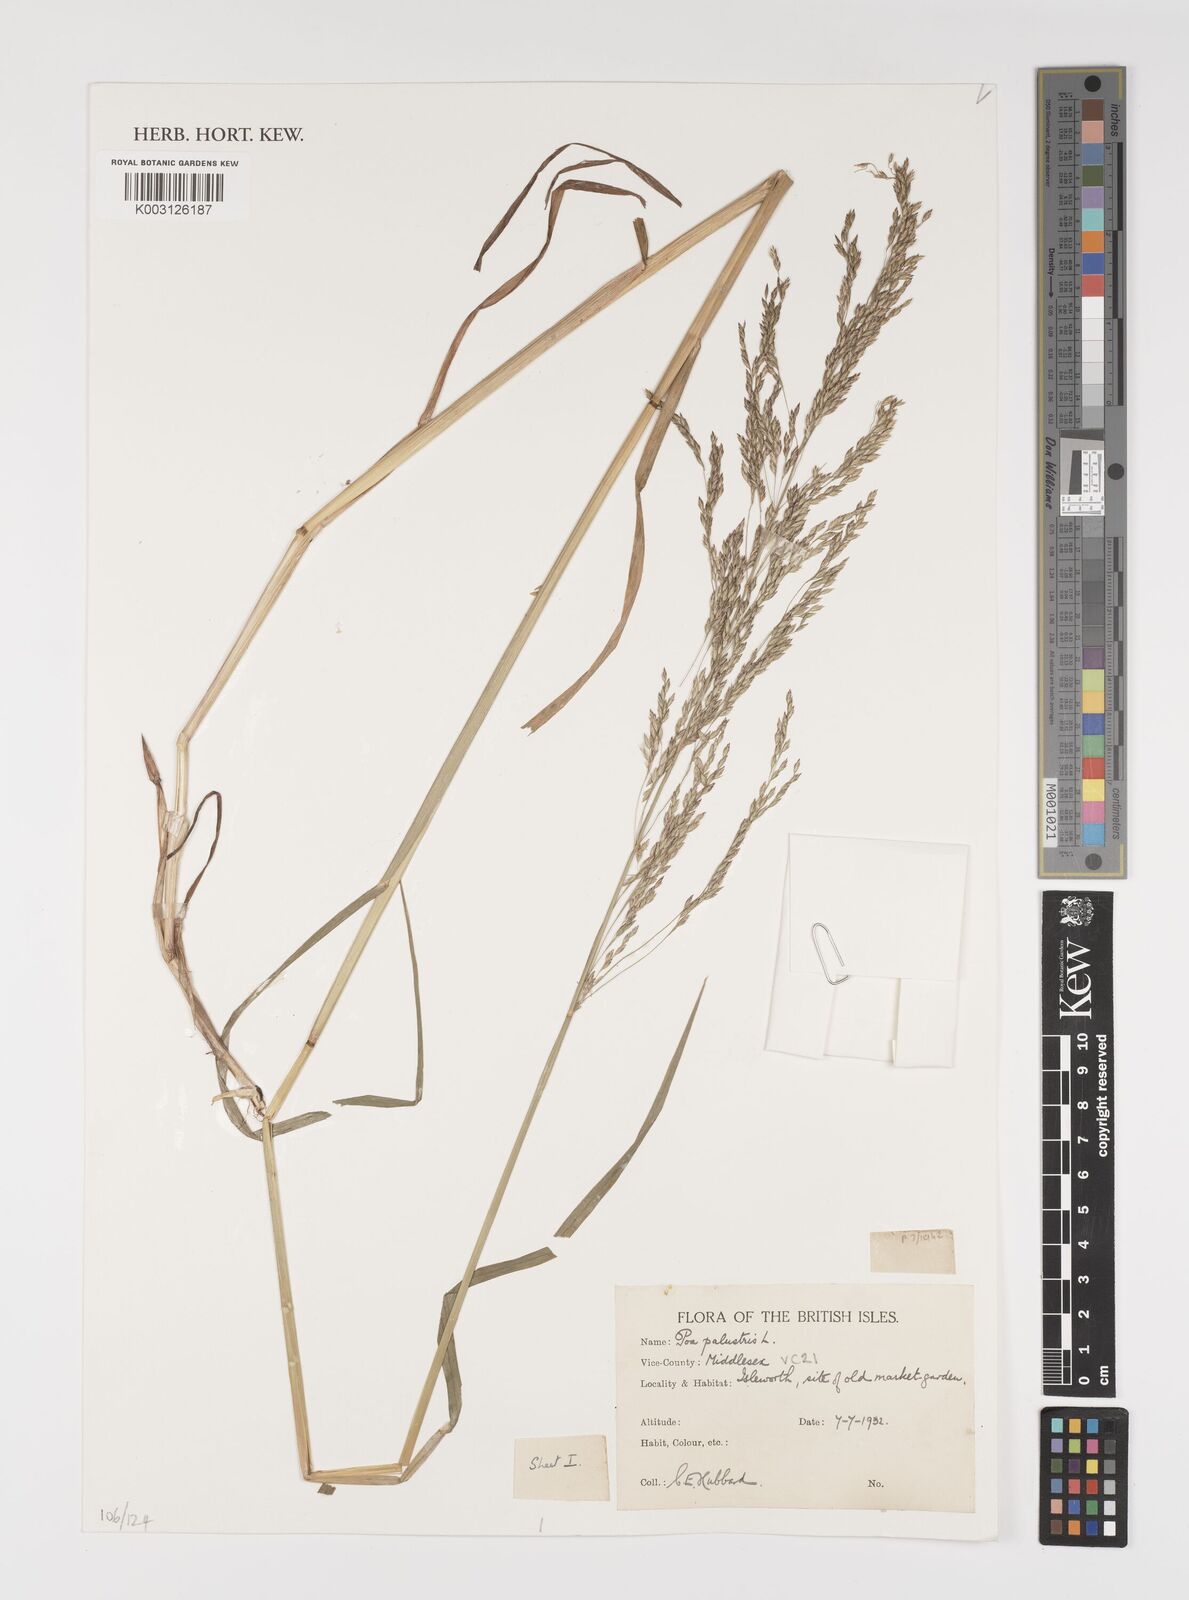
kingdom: Plantae
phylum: Tracheophyta
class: Liliopsida
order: Poales
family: Poaceae
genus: Poa
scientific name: Poa palustris
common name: Swamp meadow-grass
